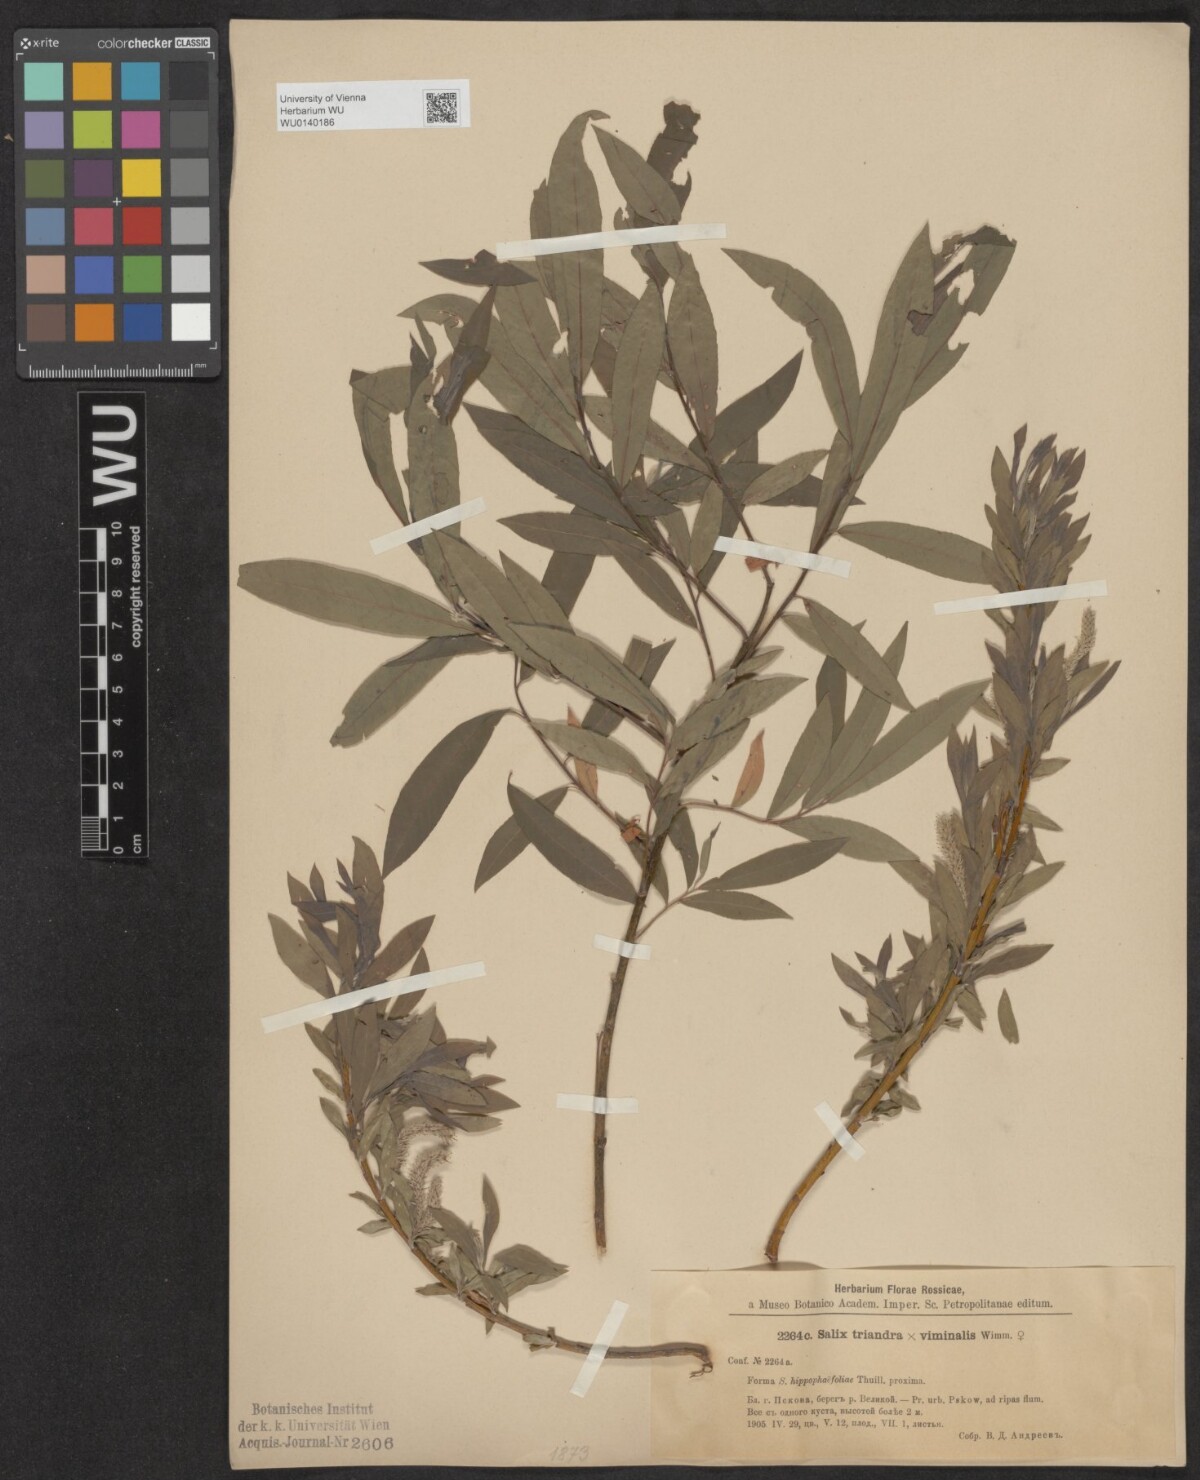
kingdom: Plantae
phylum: Tracheophyta
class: Magnoliopsida
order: Malpighiales
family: Salicaceae
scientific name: Salicaceae
